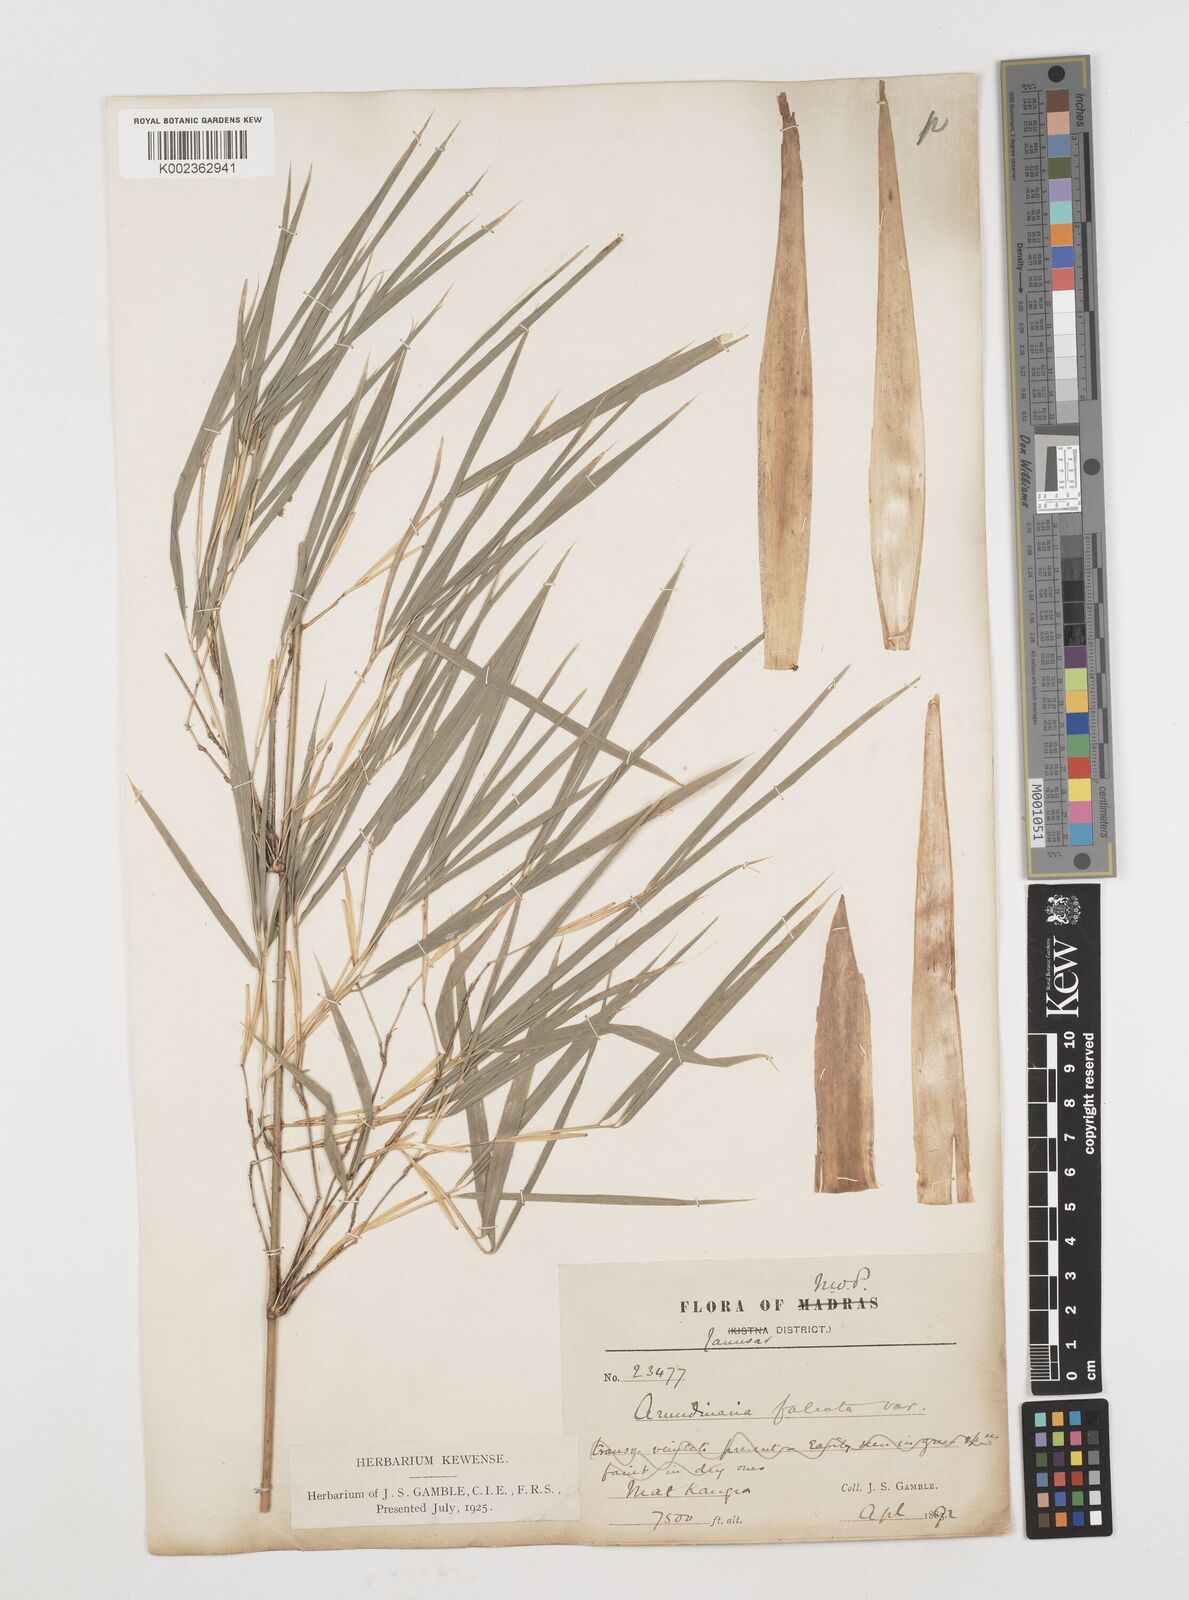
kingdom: Plantae
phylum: Tracheophyta
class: Liliopsida
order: Poales
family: Poaceae
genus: Drepanostachyum
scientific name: Drepanostachyum falcatum
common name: Himalayan bamboo
